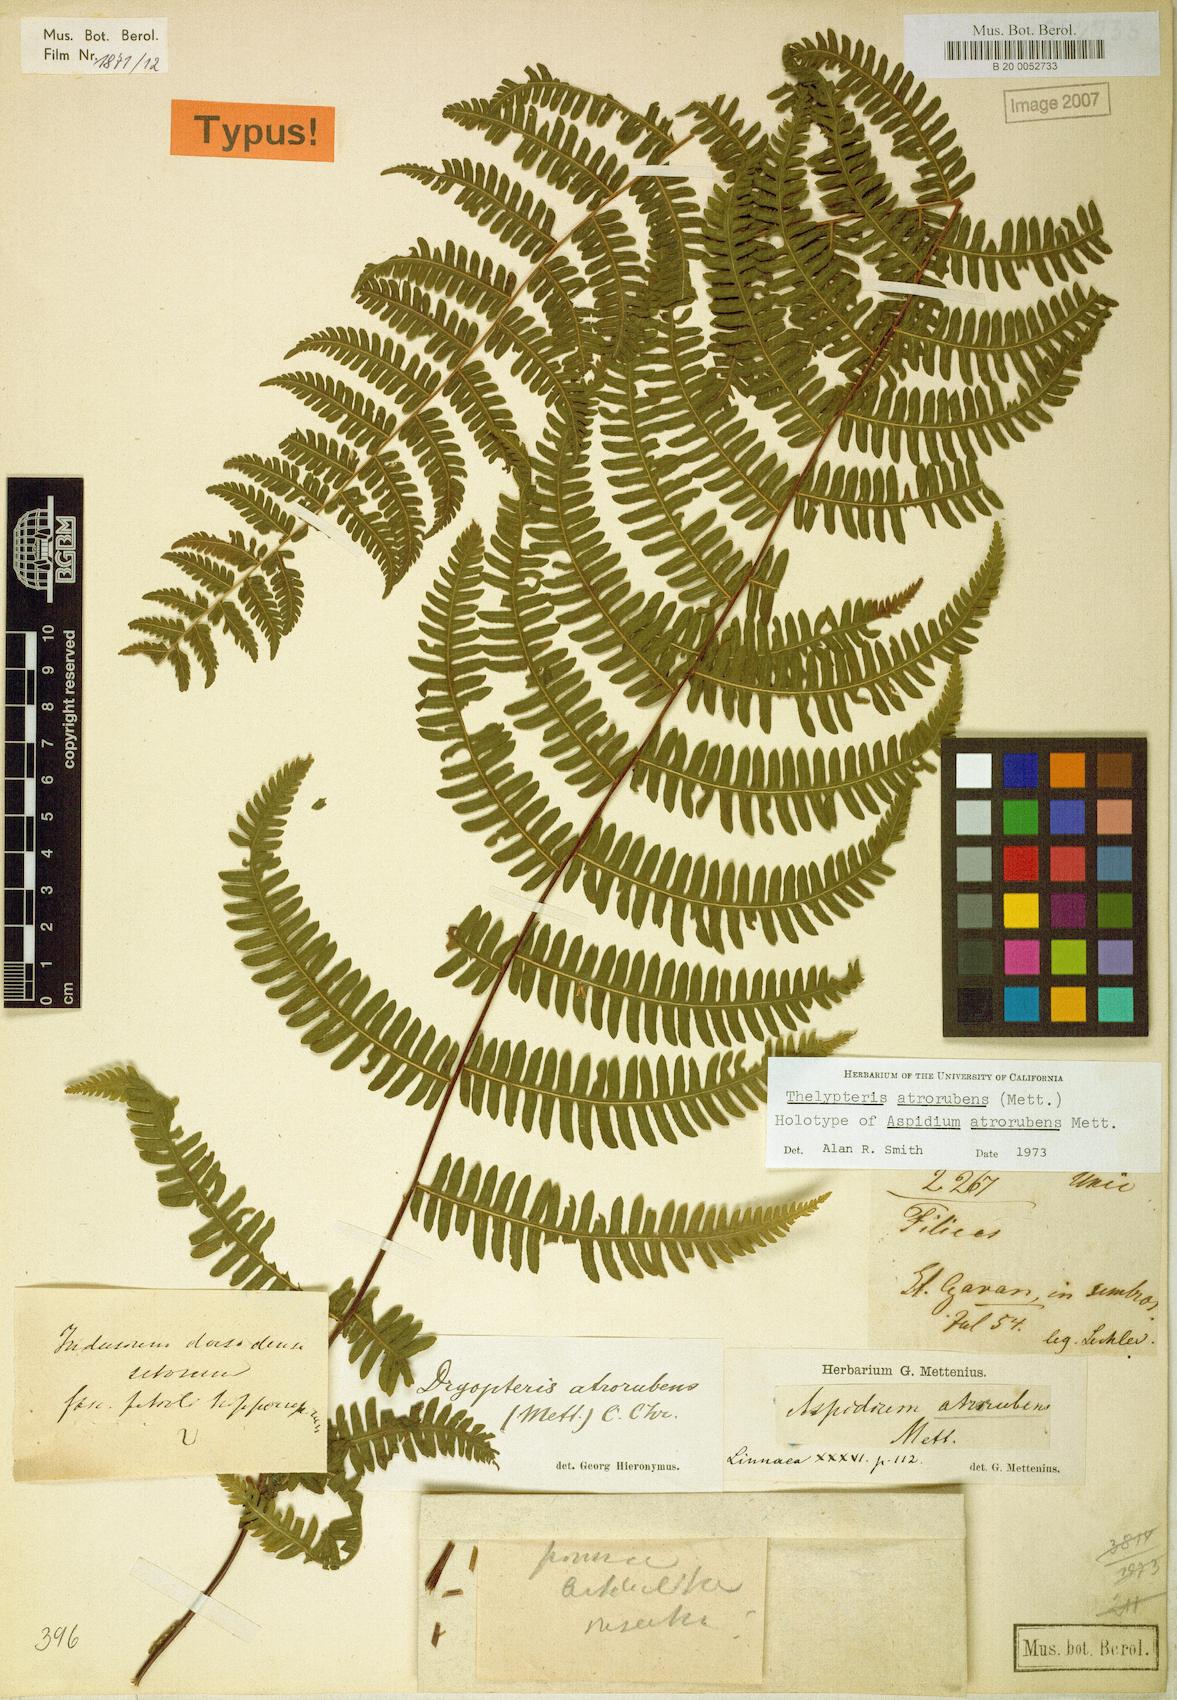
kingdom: Plantae
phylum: Tracheophyta
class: Polypodiopsida
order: Polypodiales
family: Thelypteridaceae
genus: Amauropelta
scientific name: Amauropelta atrorubens
